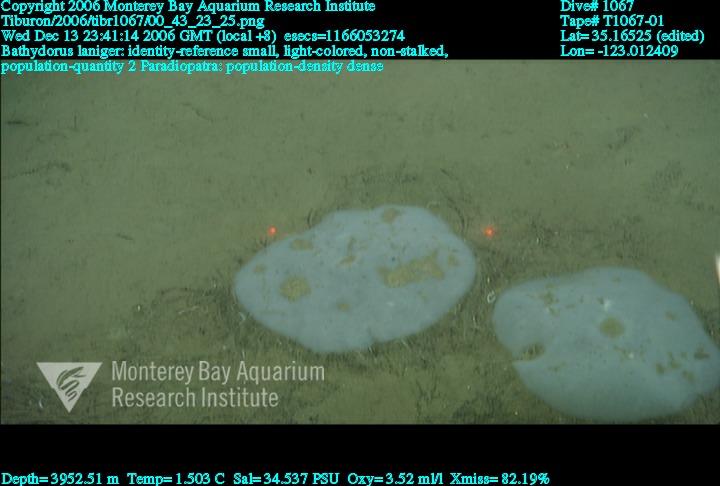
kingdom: Animalia
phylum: Porifera
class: Hexactinellida
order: Lyssacinosida
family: Rossellidae
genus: Bathydorus
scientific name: Bathydorus laniger
